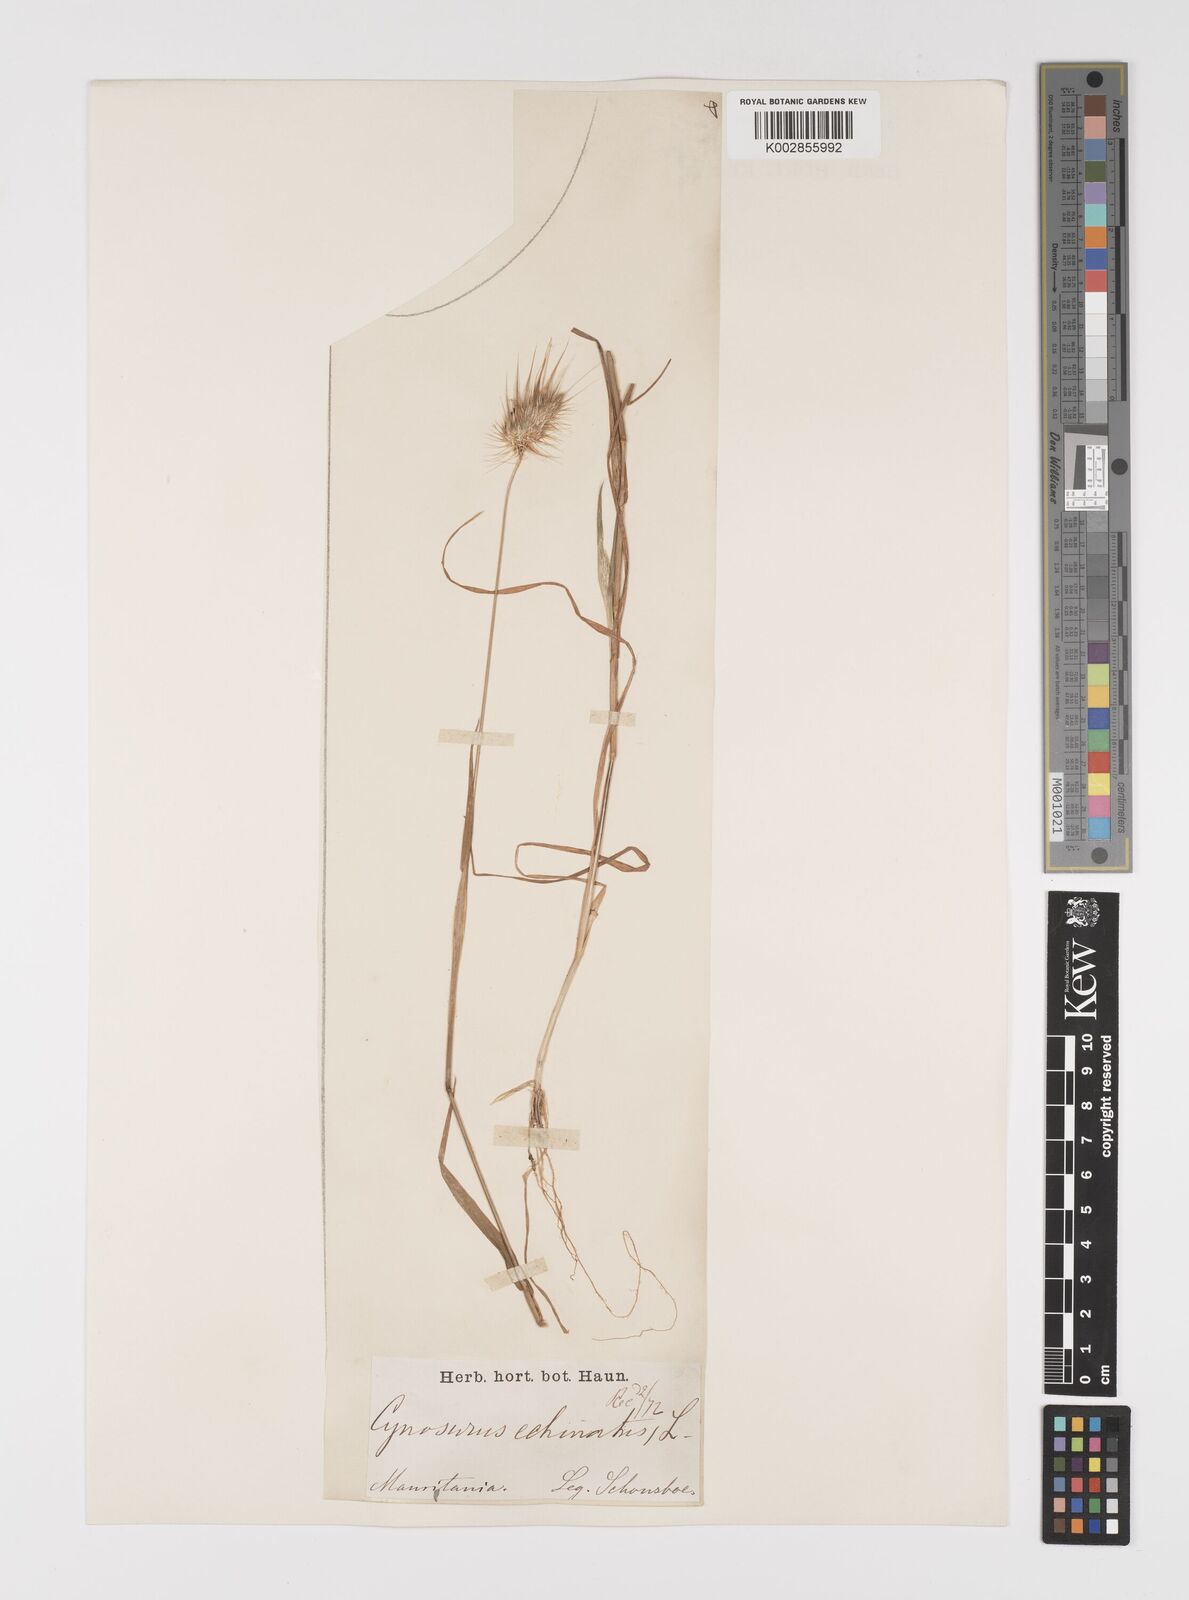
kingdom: Plantae
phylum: Tracheophyta
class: Liliopsida
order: Poales
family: Poaceae
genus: Cynosurus
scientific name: Cynosurus echinatus
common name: Rough dog's-tail
